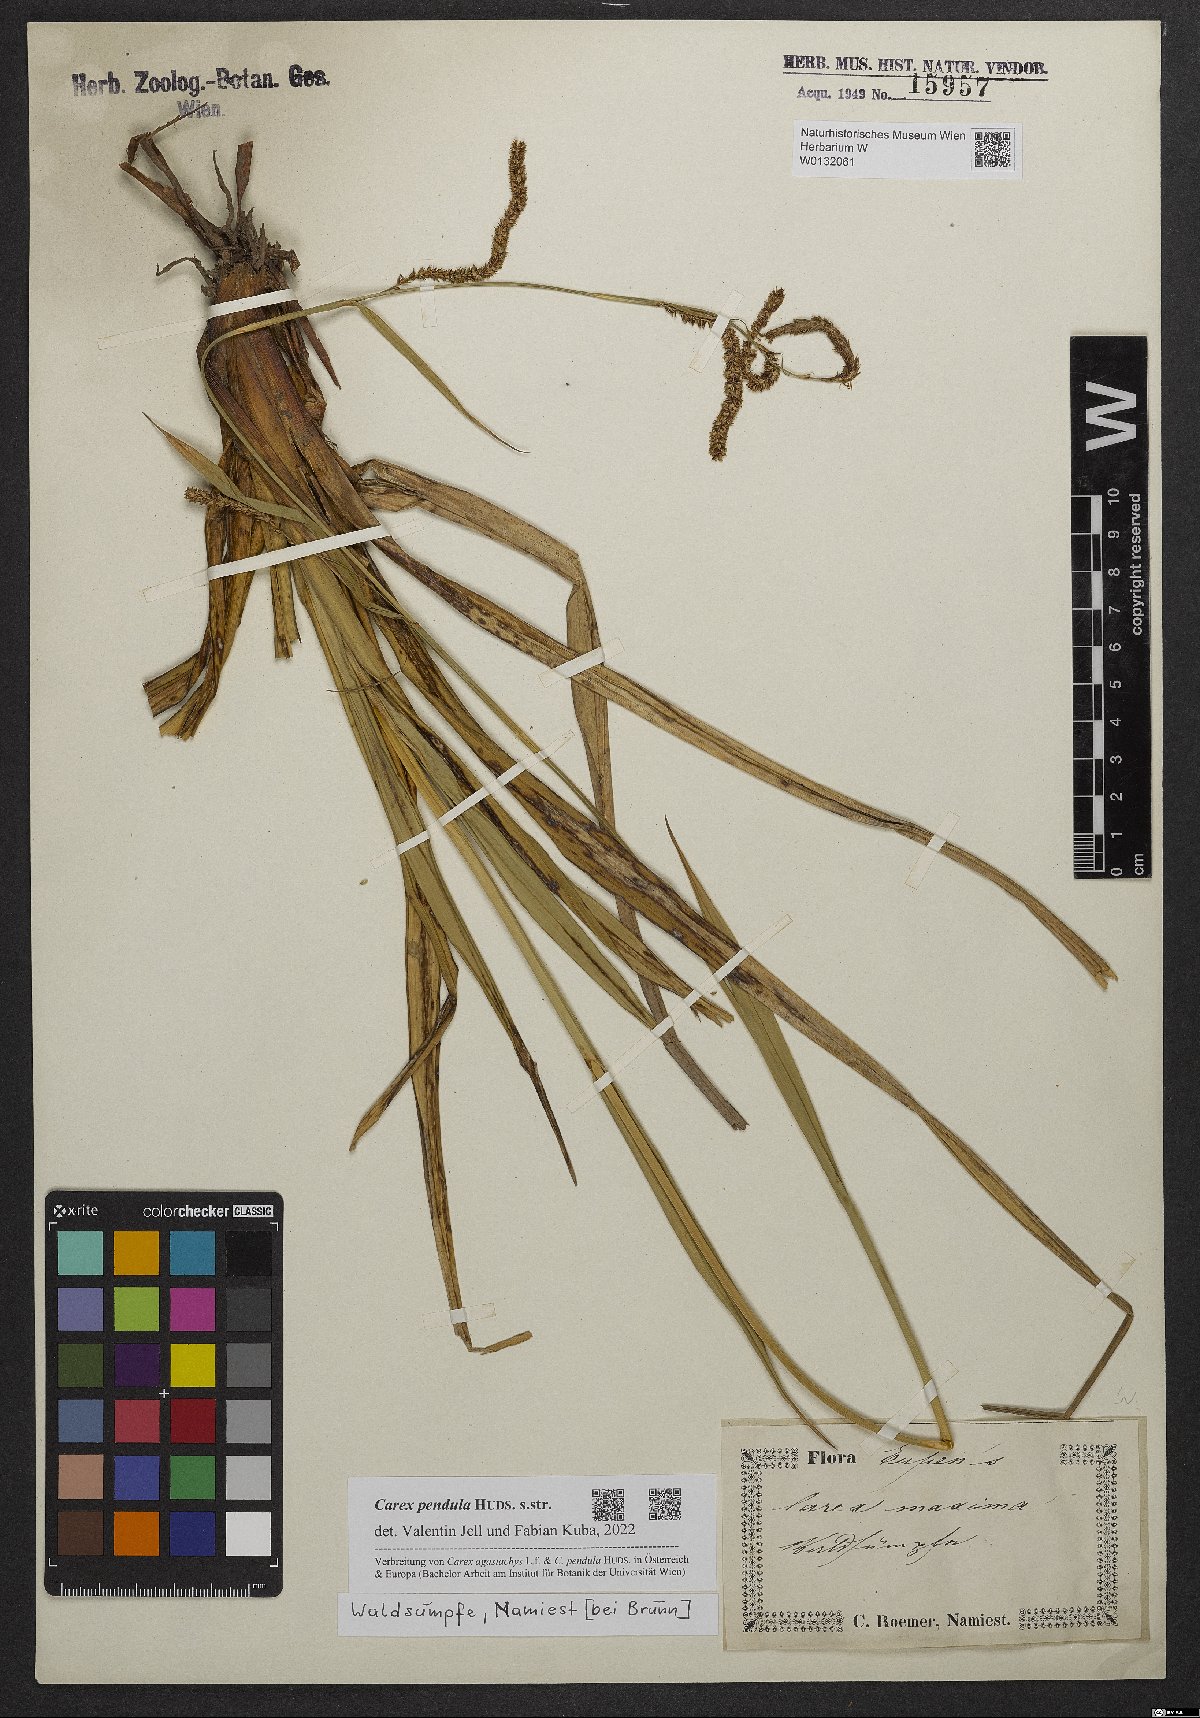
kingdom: Plantae
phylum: Tracheophyta
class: Liliopsida
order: Poales
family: Cyperaceae
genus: Carex
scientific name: Carex pendula
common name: Pendulous sedge
